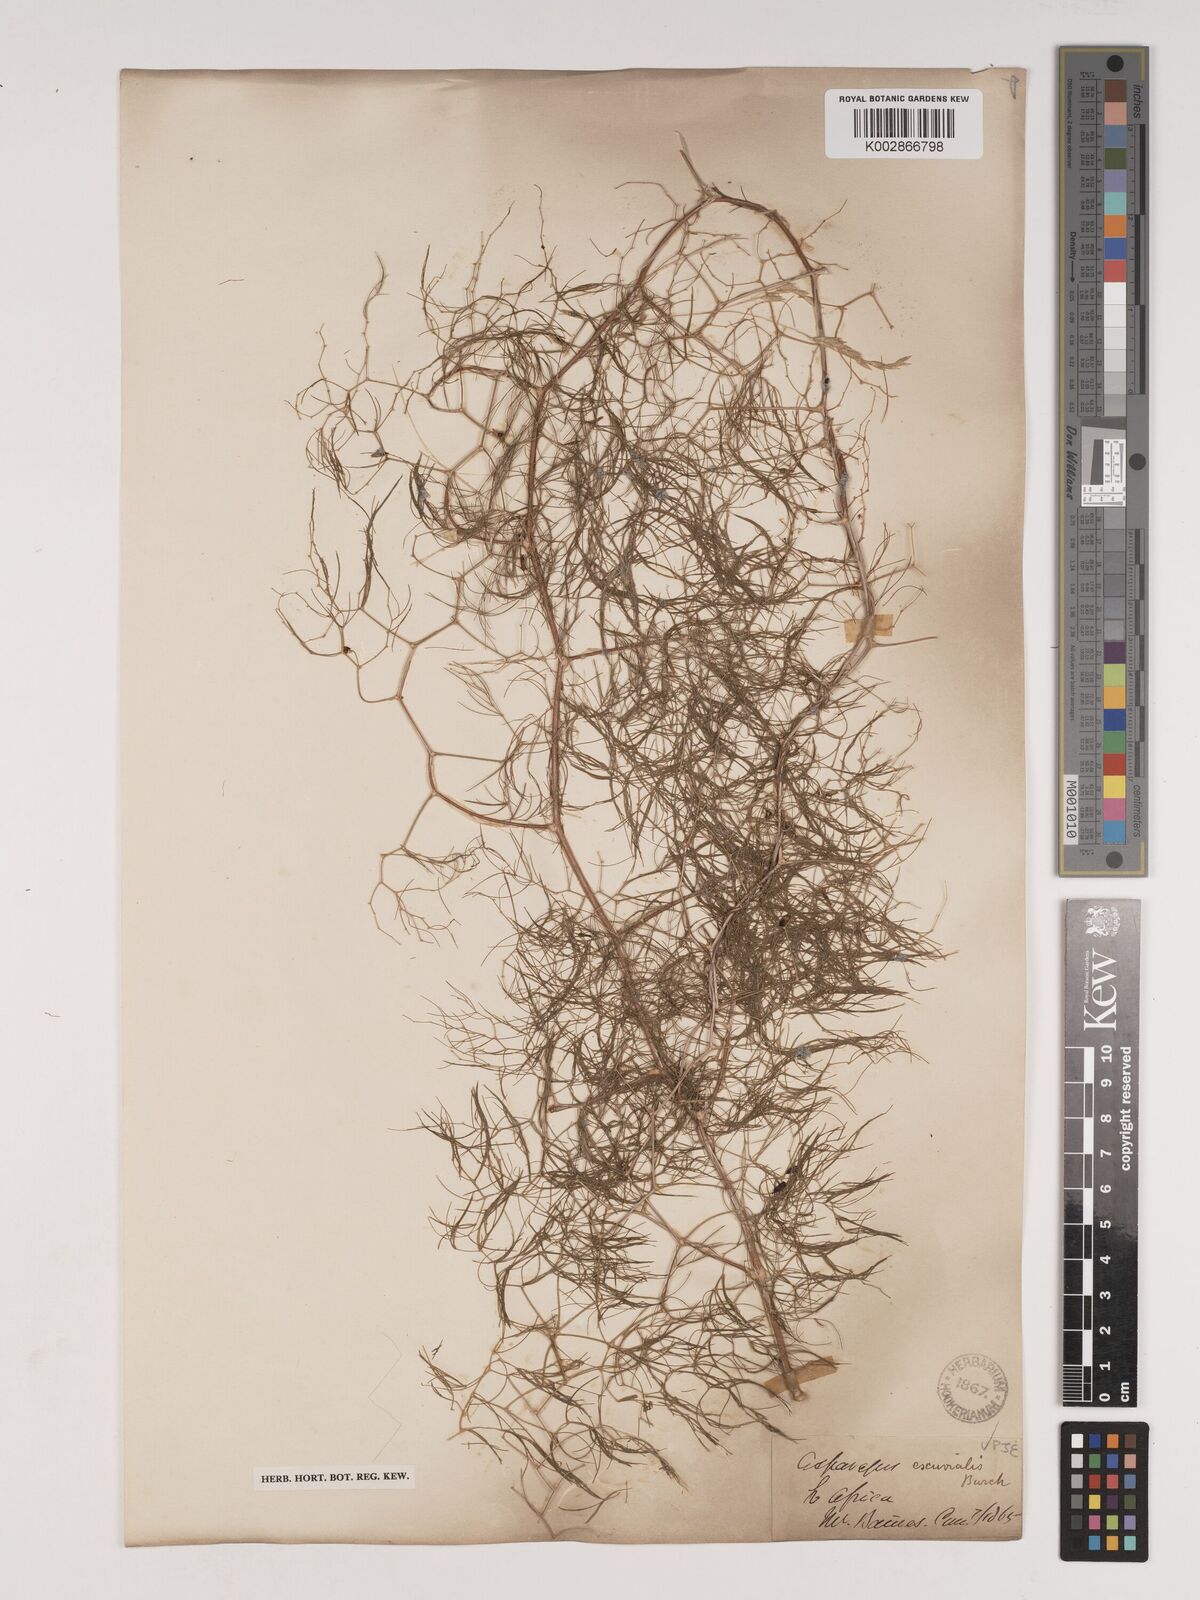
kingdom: Plantae
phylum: Tracheophyta
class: Liliopsida
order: Asparagales
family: Asparagaceae
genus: Asparagus
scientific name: Asparagus exuvialis
